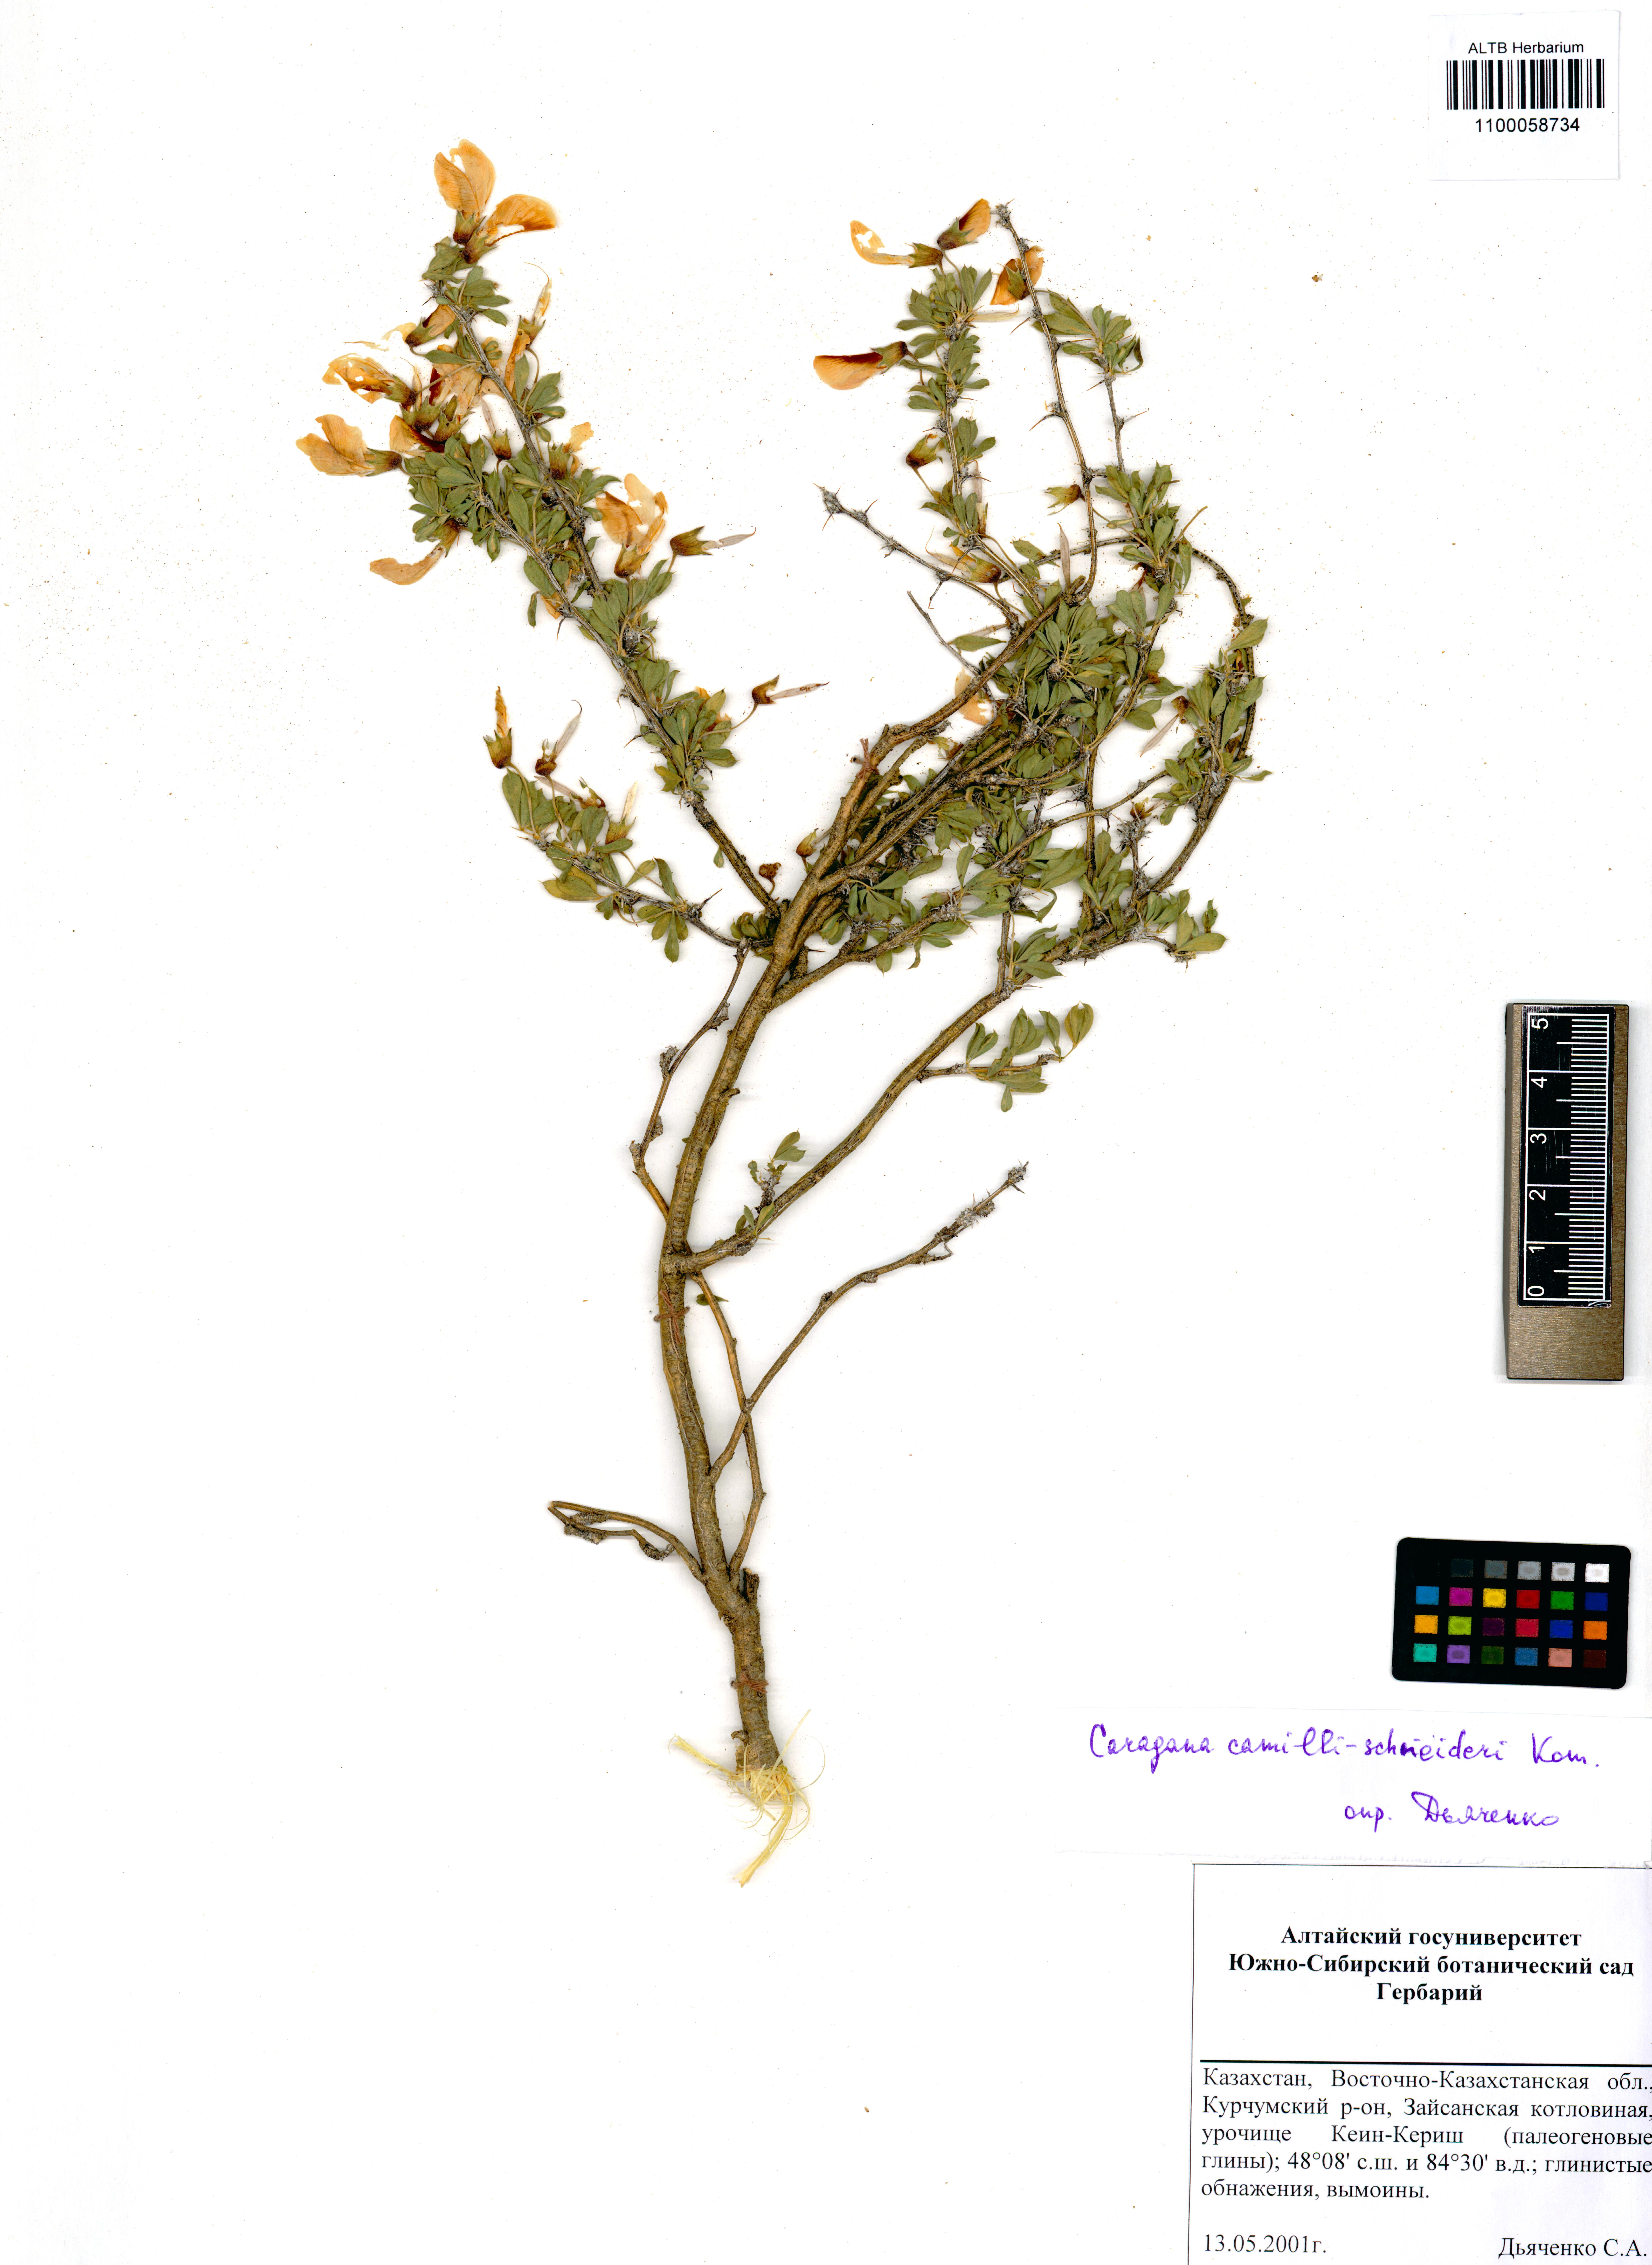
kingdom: Plantae
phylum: Tracheophyta
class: Magnoliopsida
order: Fabales
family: Fabaceae
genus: Caragana
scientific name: Caragana camilli-schneideri
